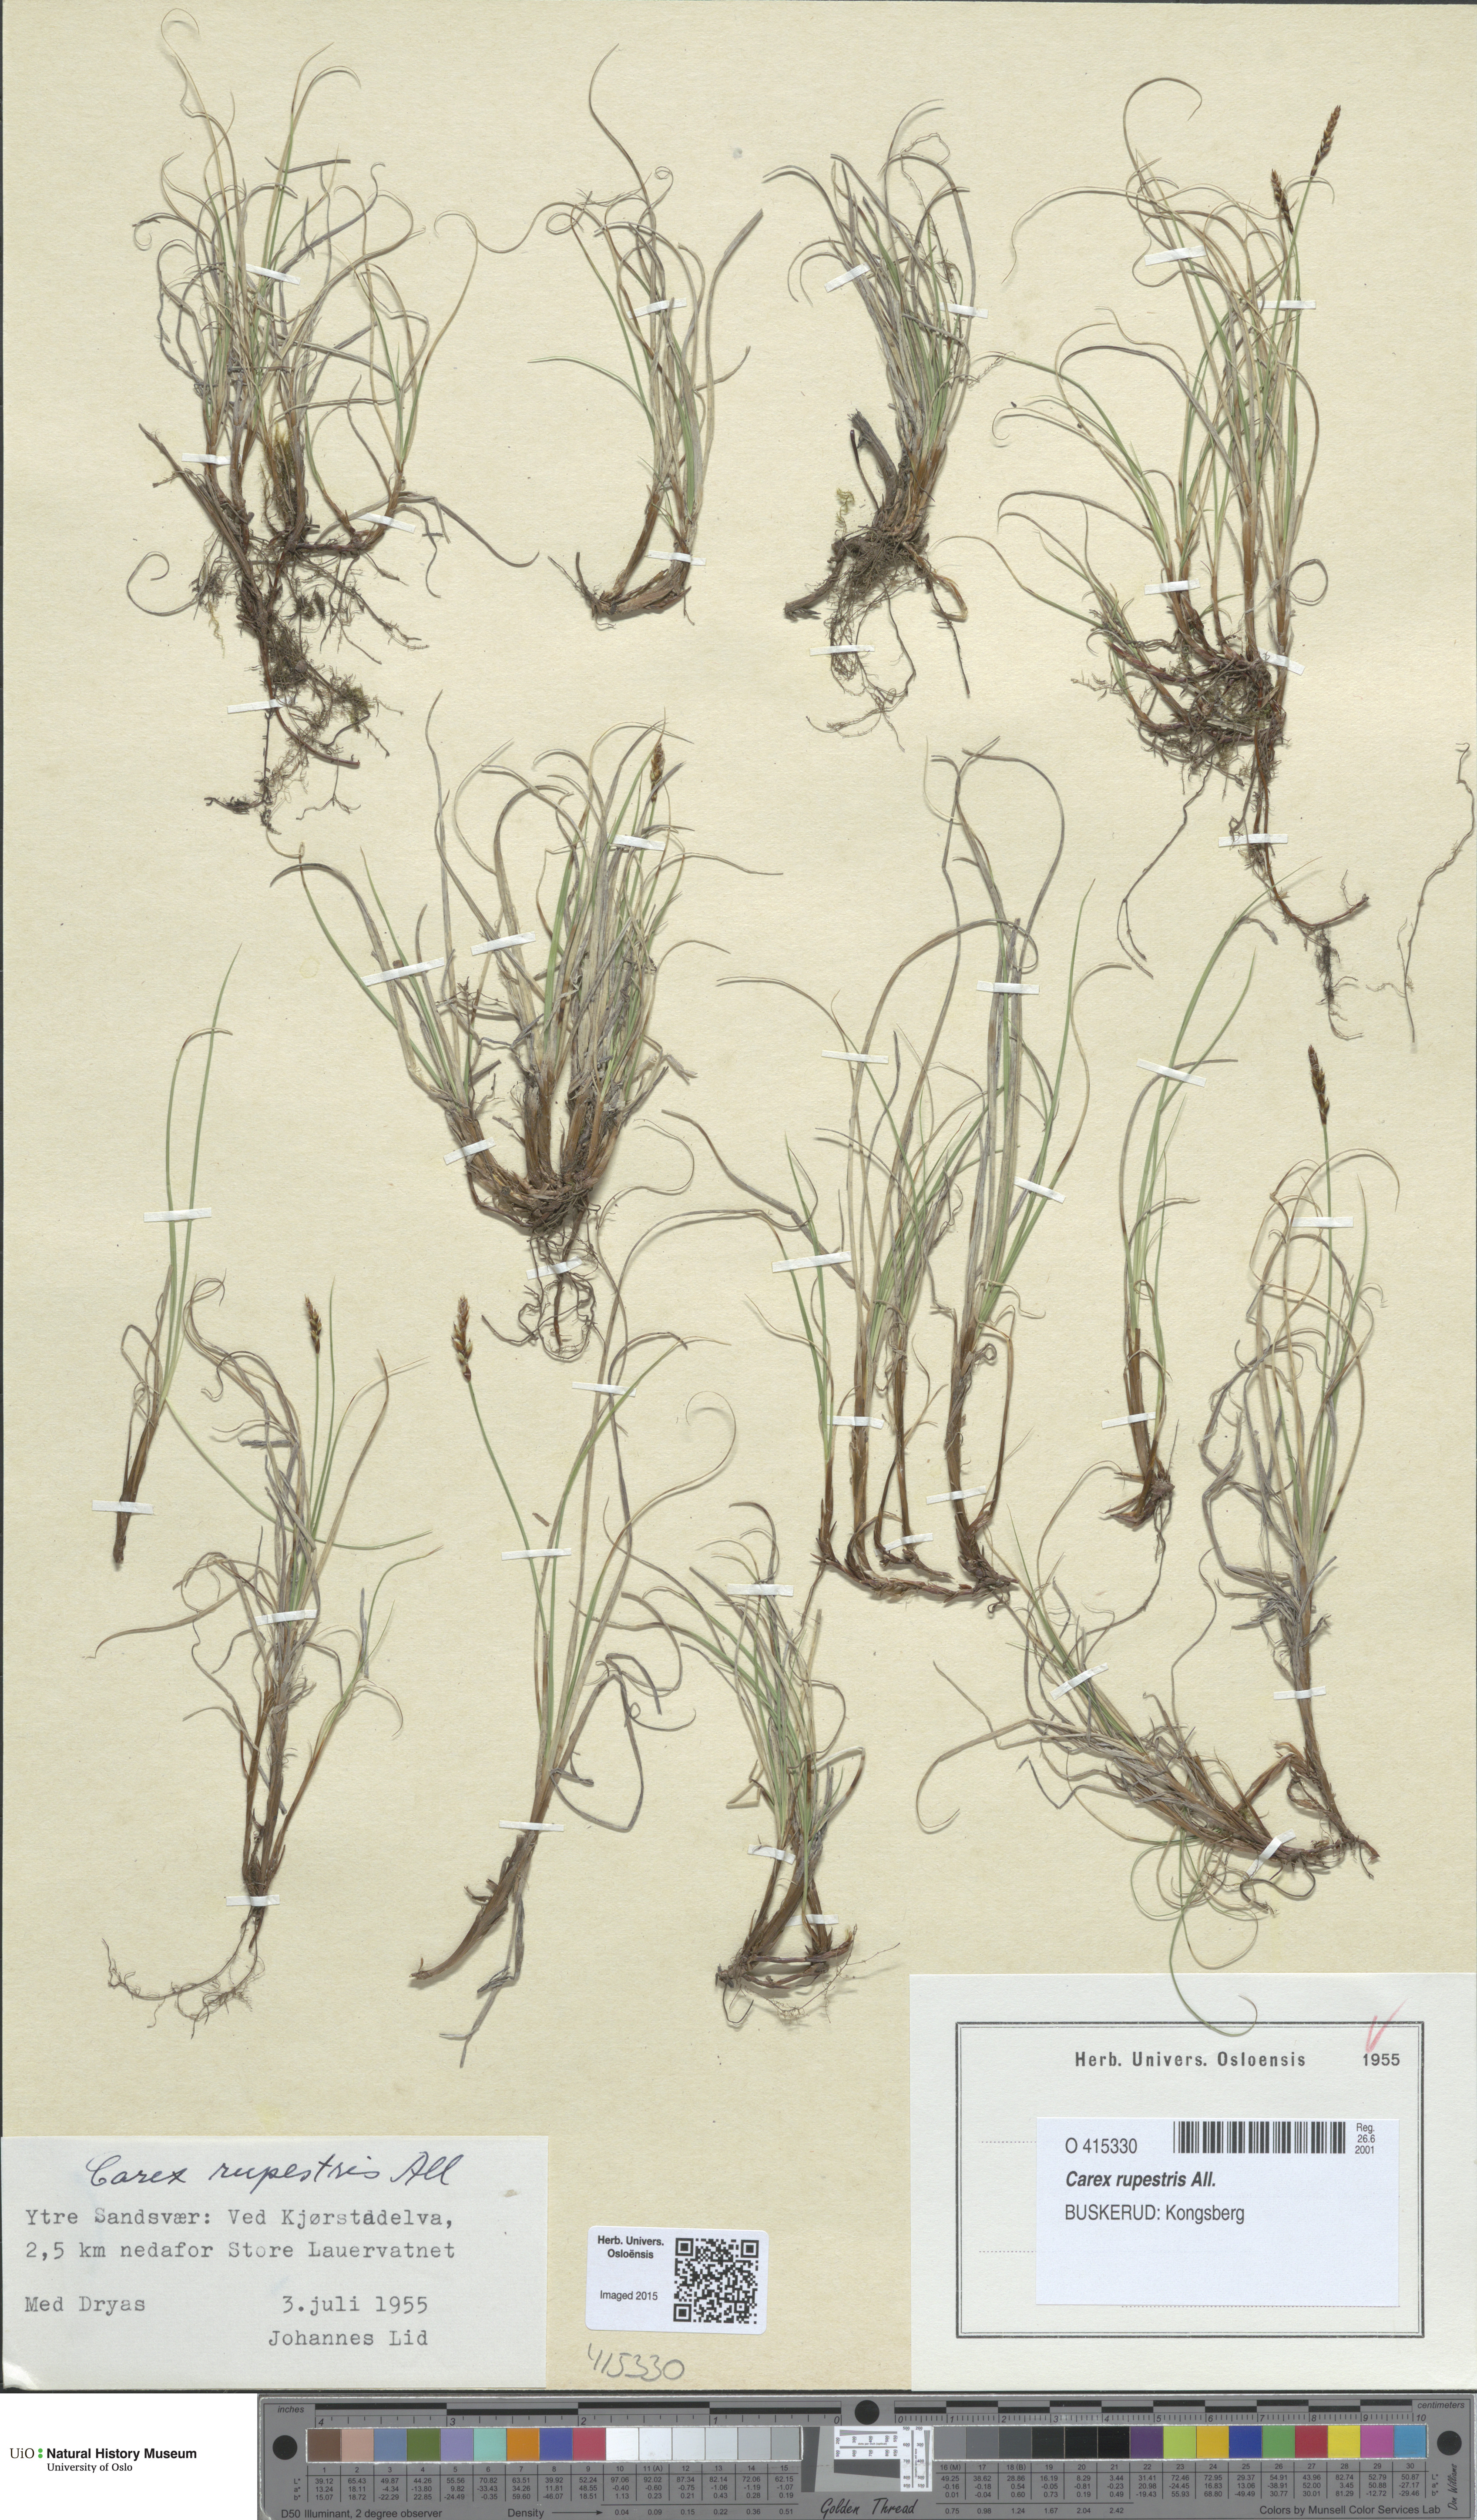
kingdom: Plantae
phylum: Tracheophyta
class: Liliopsida
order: Poales
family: Cyperaceae
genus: Carex
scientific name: Carex rupestris
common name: Rock sedge
